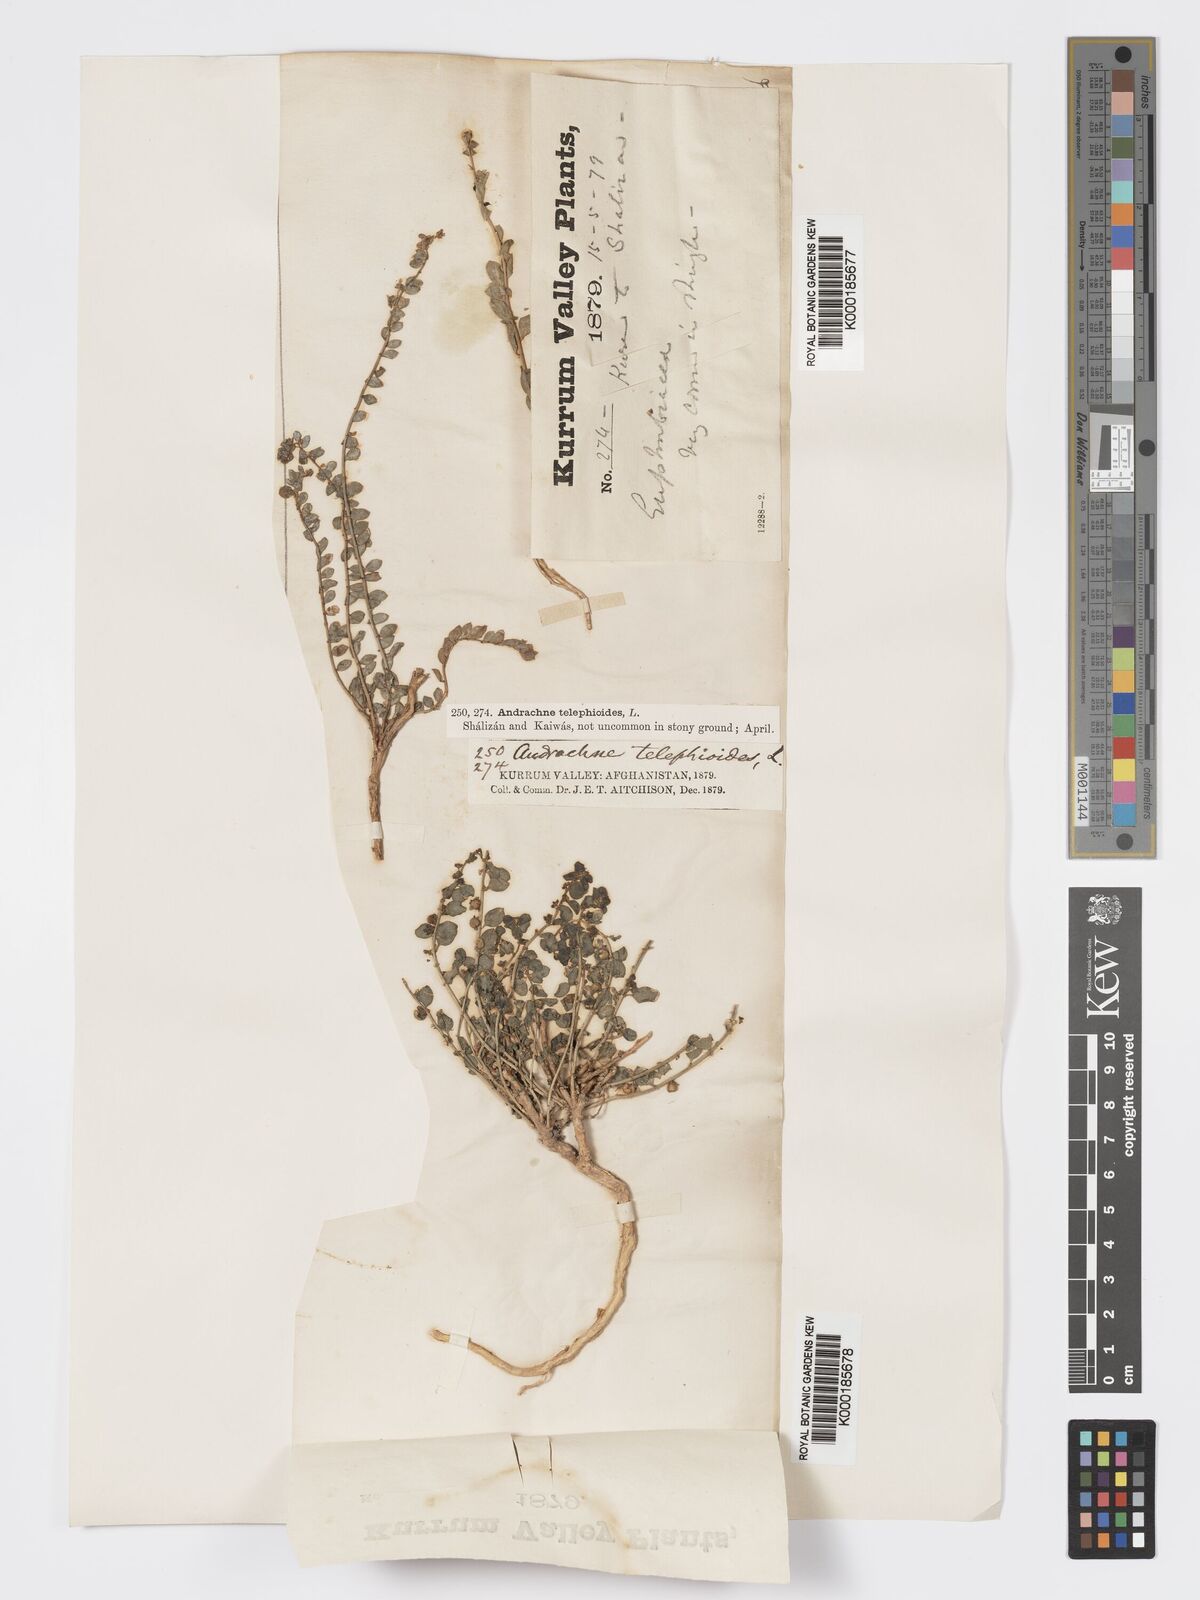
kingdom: Plantae
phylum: Tracheophyta
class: Magnoliopsida
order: Malpighiales
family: Phyllanthaceae
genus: Andrachne
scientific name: Andrachne telephioides
